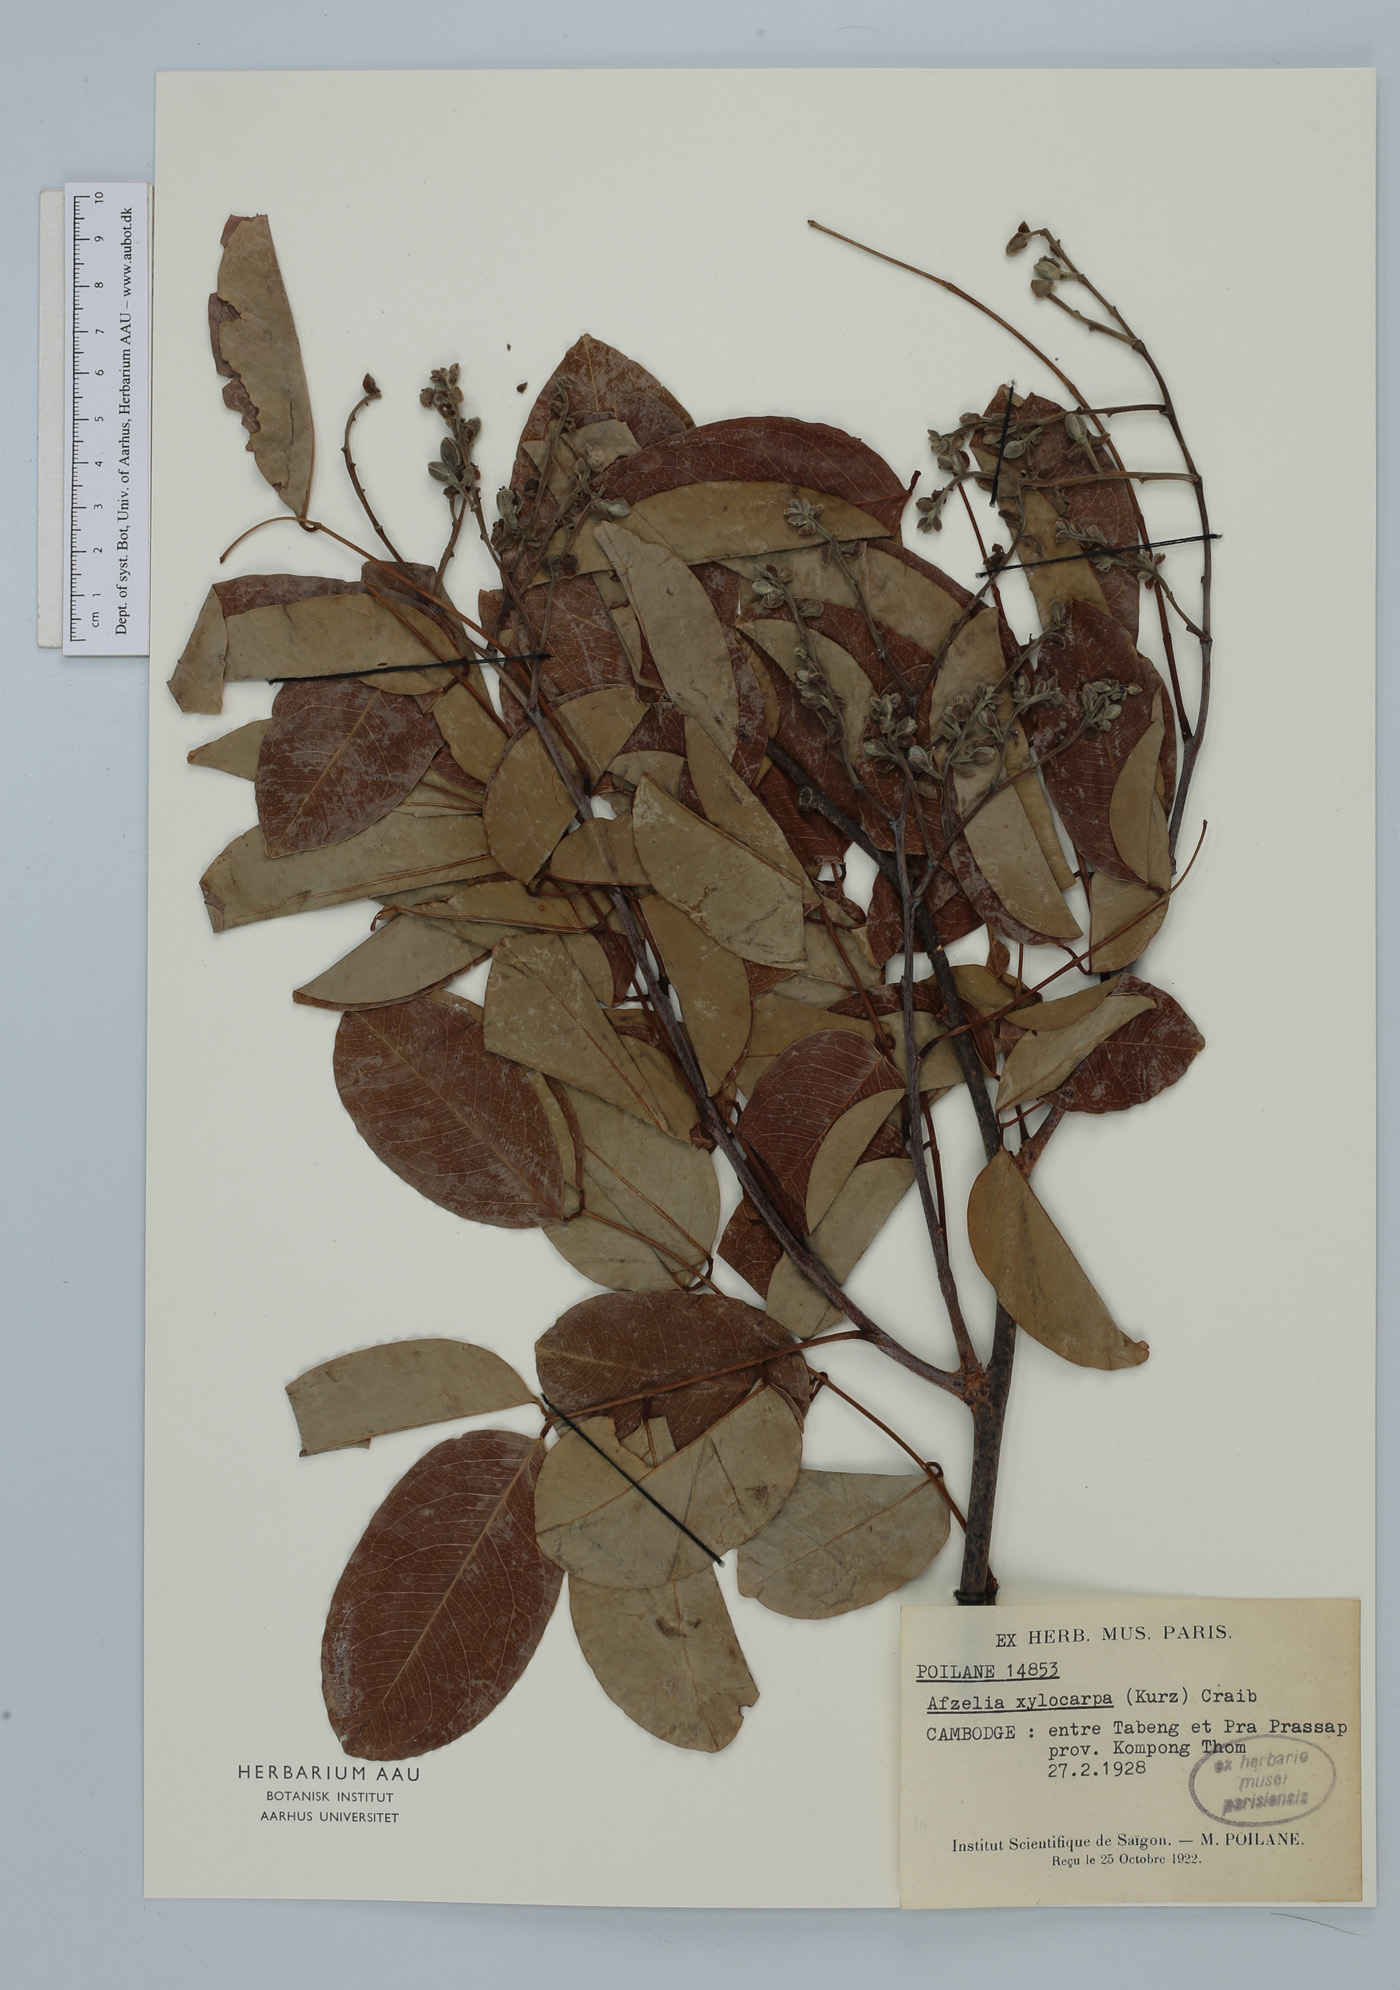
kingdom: Plantae
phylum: Tracheophyta
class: Magnoliopsida
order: Fabales
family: Fabaceae
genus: Afzelia
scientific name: Afzelia xylocarpa
